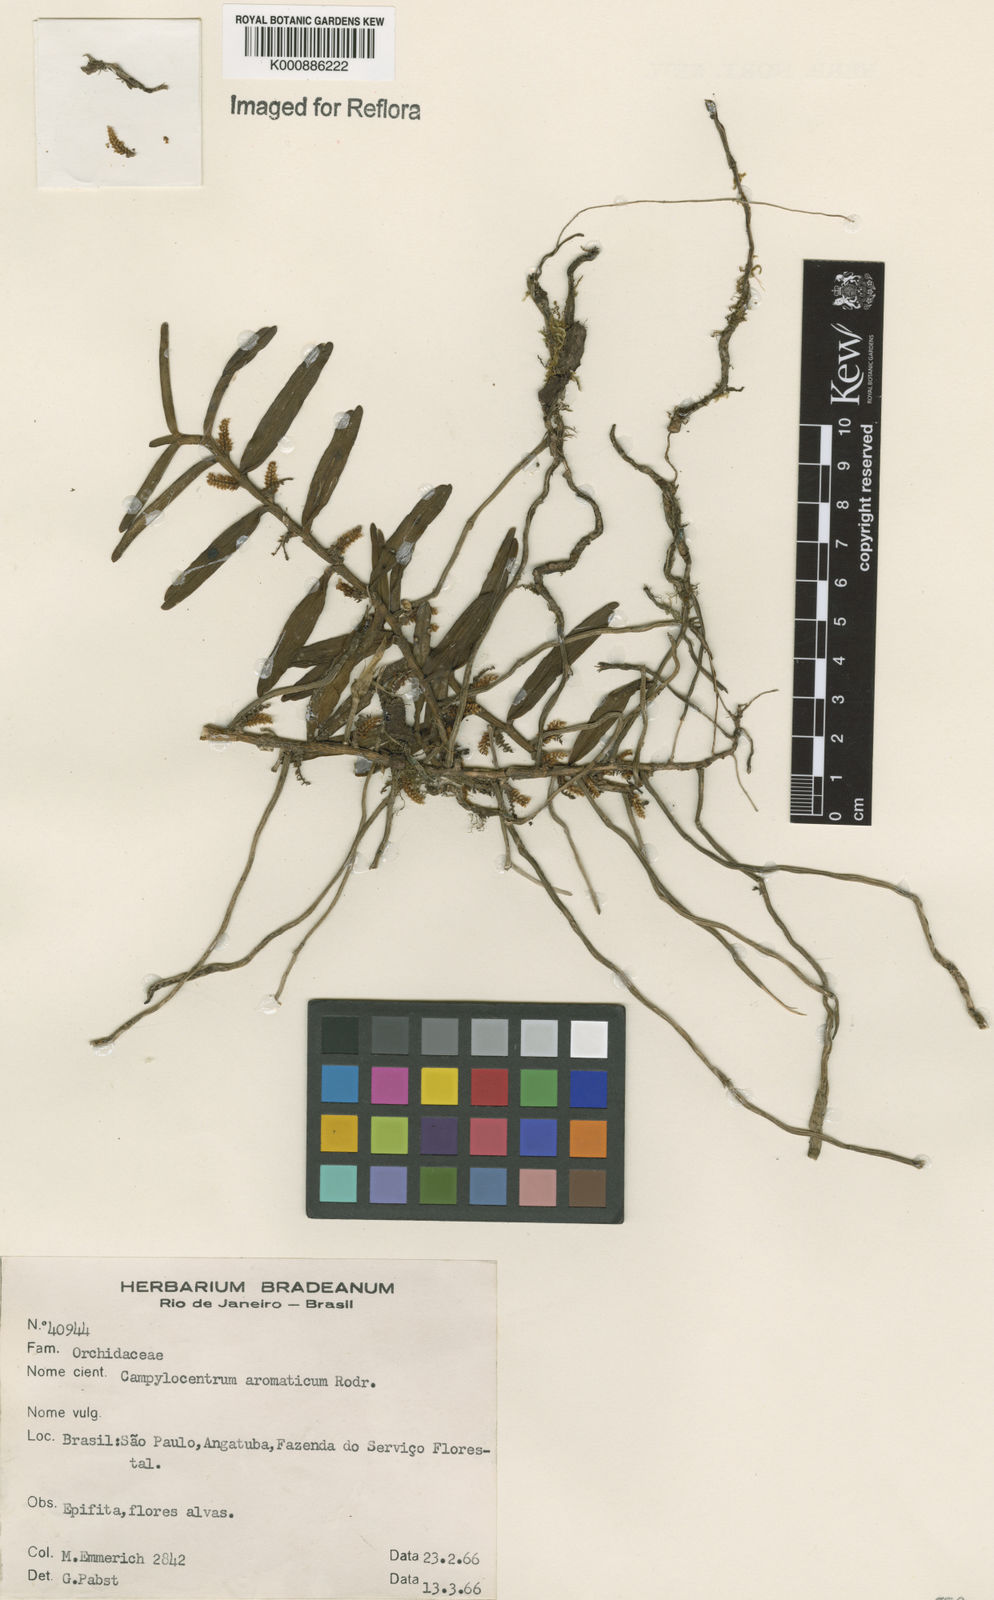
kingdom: Plantae
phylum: Tracheophyta
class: Liliopsida
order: Asparagales
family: Orchidaceae
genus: Campylocentrum
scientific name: Campylocentrum brevifolium
